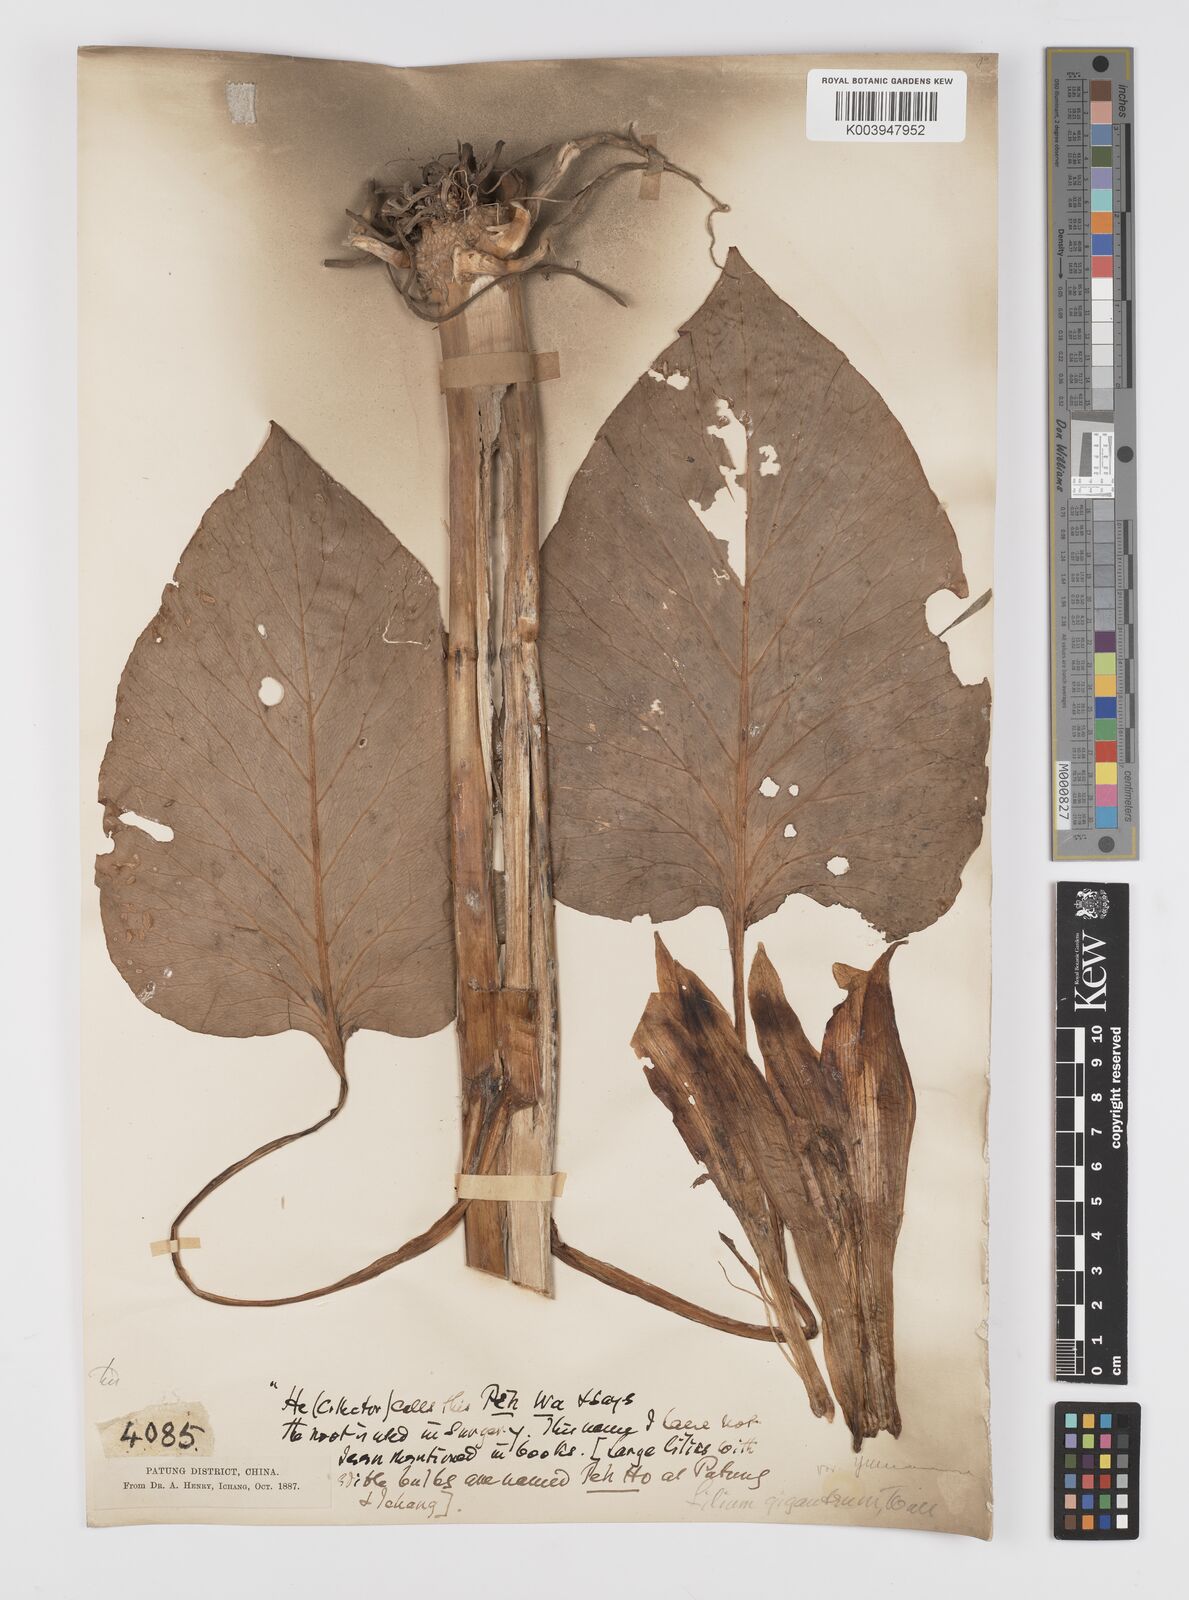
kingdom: Plantae
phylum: Tracheophyta
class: Liliopsida
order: Liliales
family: Liliaceae
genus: Cardiocrinum
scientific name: Cardiocrinum giganteum
